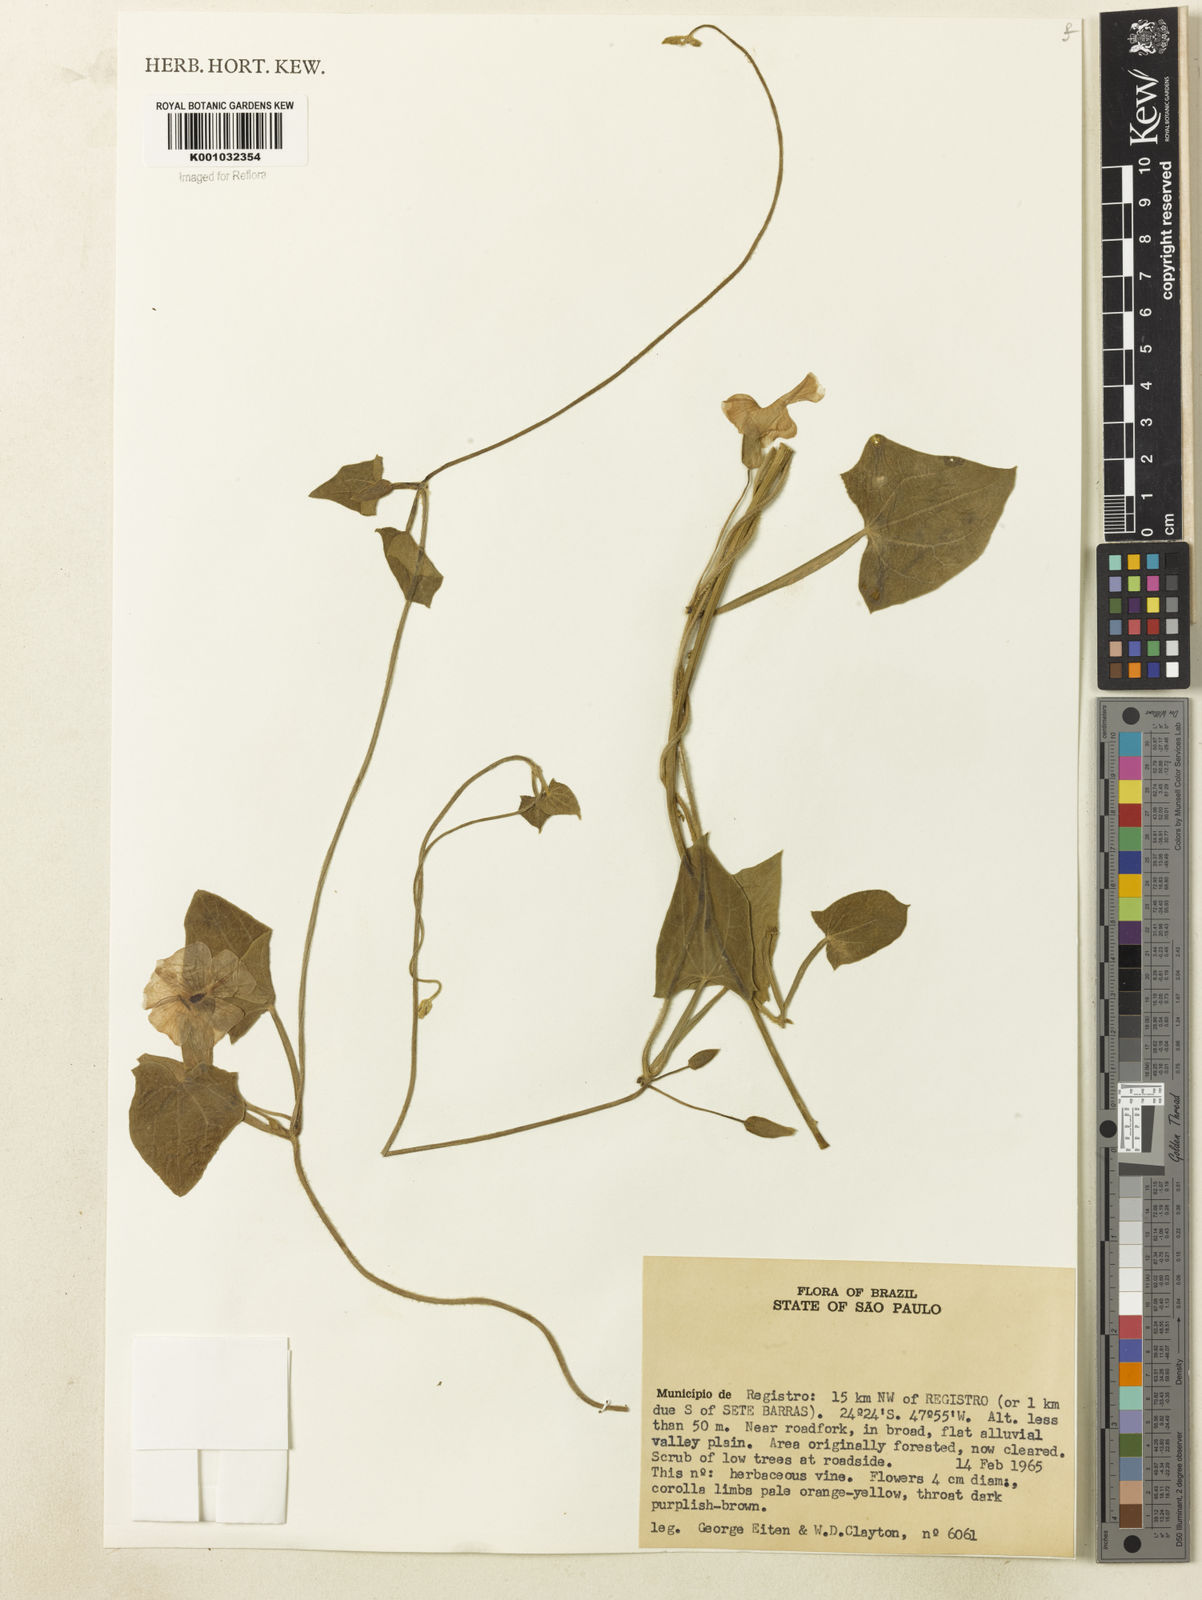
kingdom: Plantae
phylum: Tracheophyta
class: Magnoliopsida
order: Lamiales
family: Acanthaceae
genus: Thunbergia
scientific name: Thunbergia alata
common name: Blackeyed susan vine
